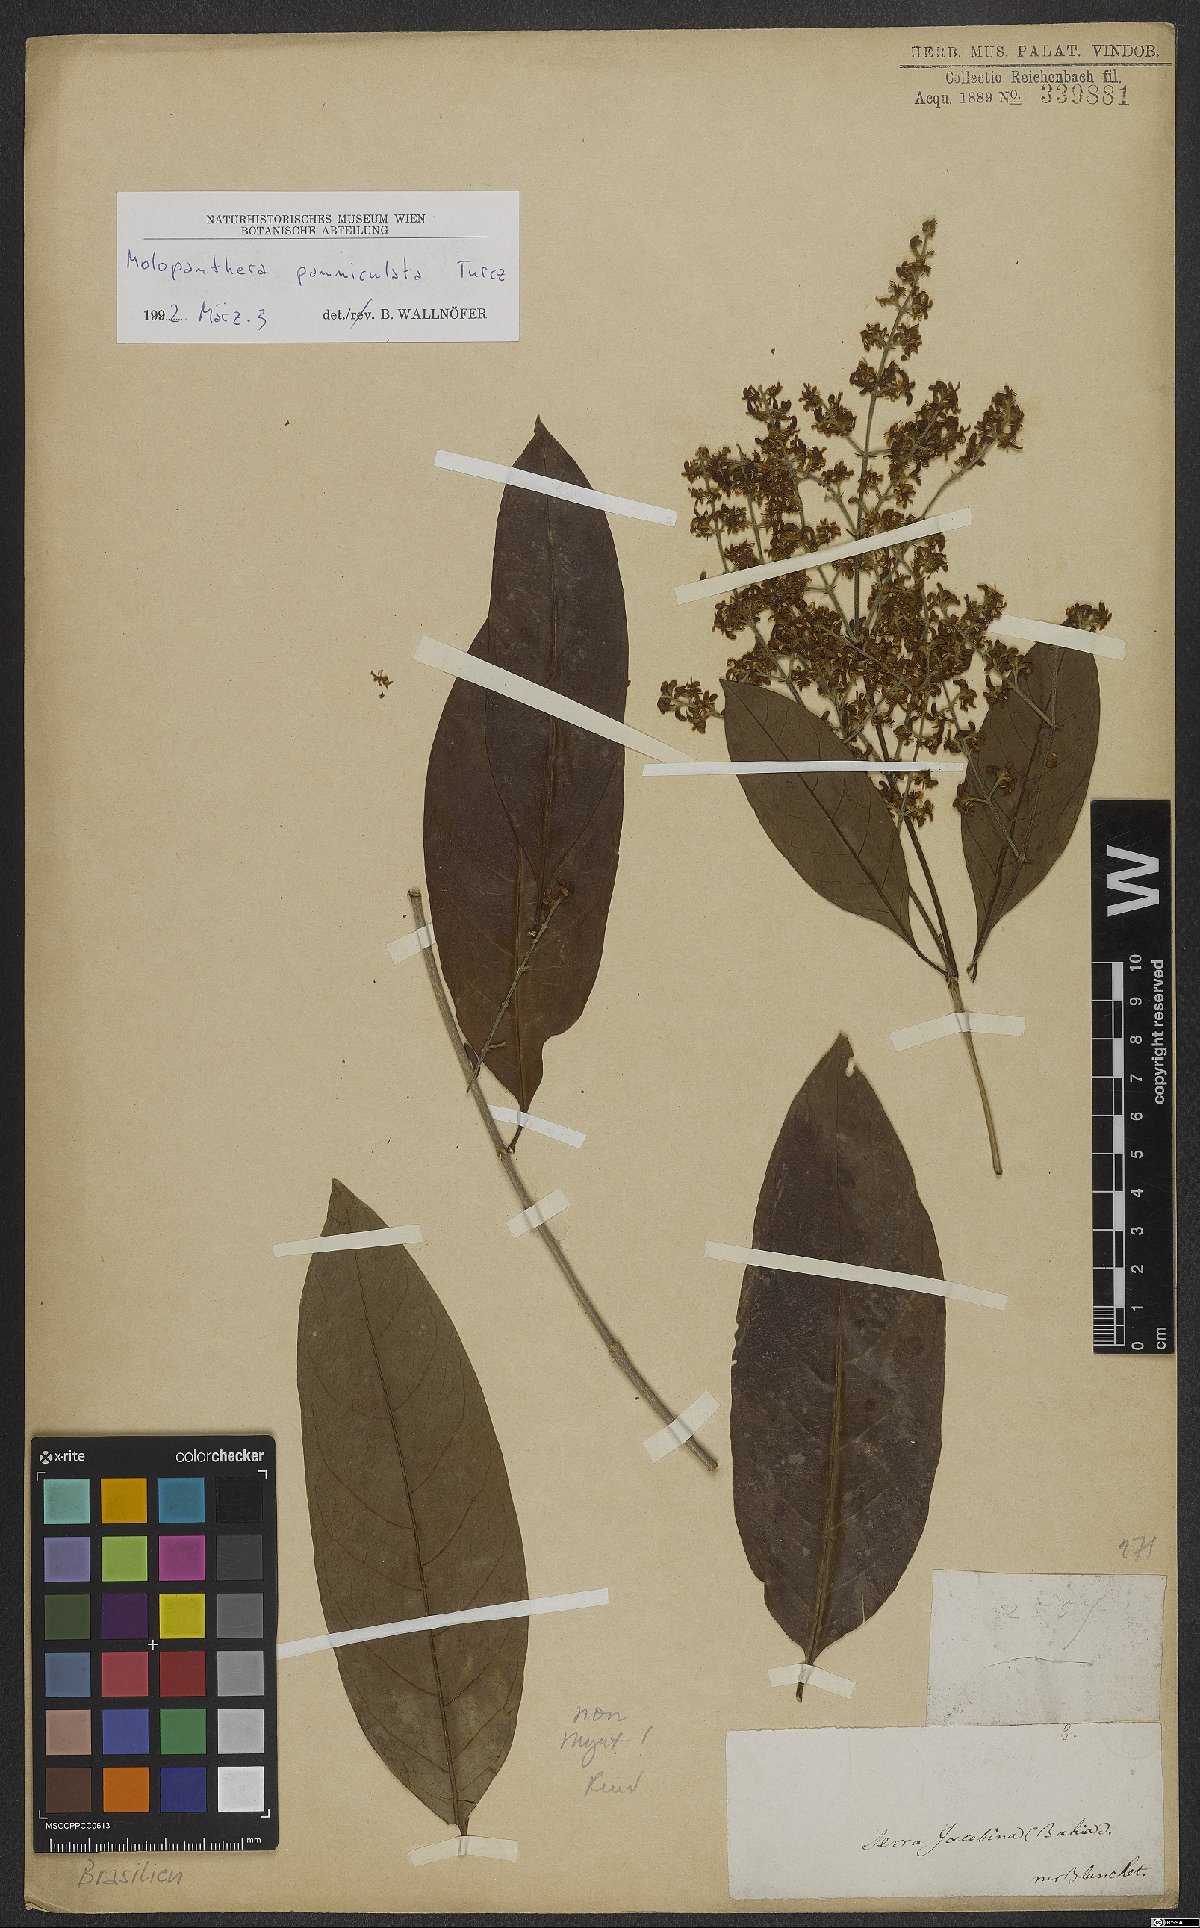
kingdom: Plantae
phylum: Tracheophyta
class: Magnoliopsida
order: Gentianales
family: Rubiaceae
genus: Molopanthera
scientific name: Molopanthera paniculata
